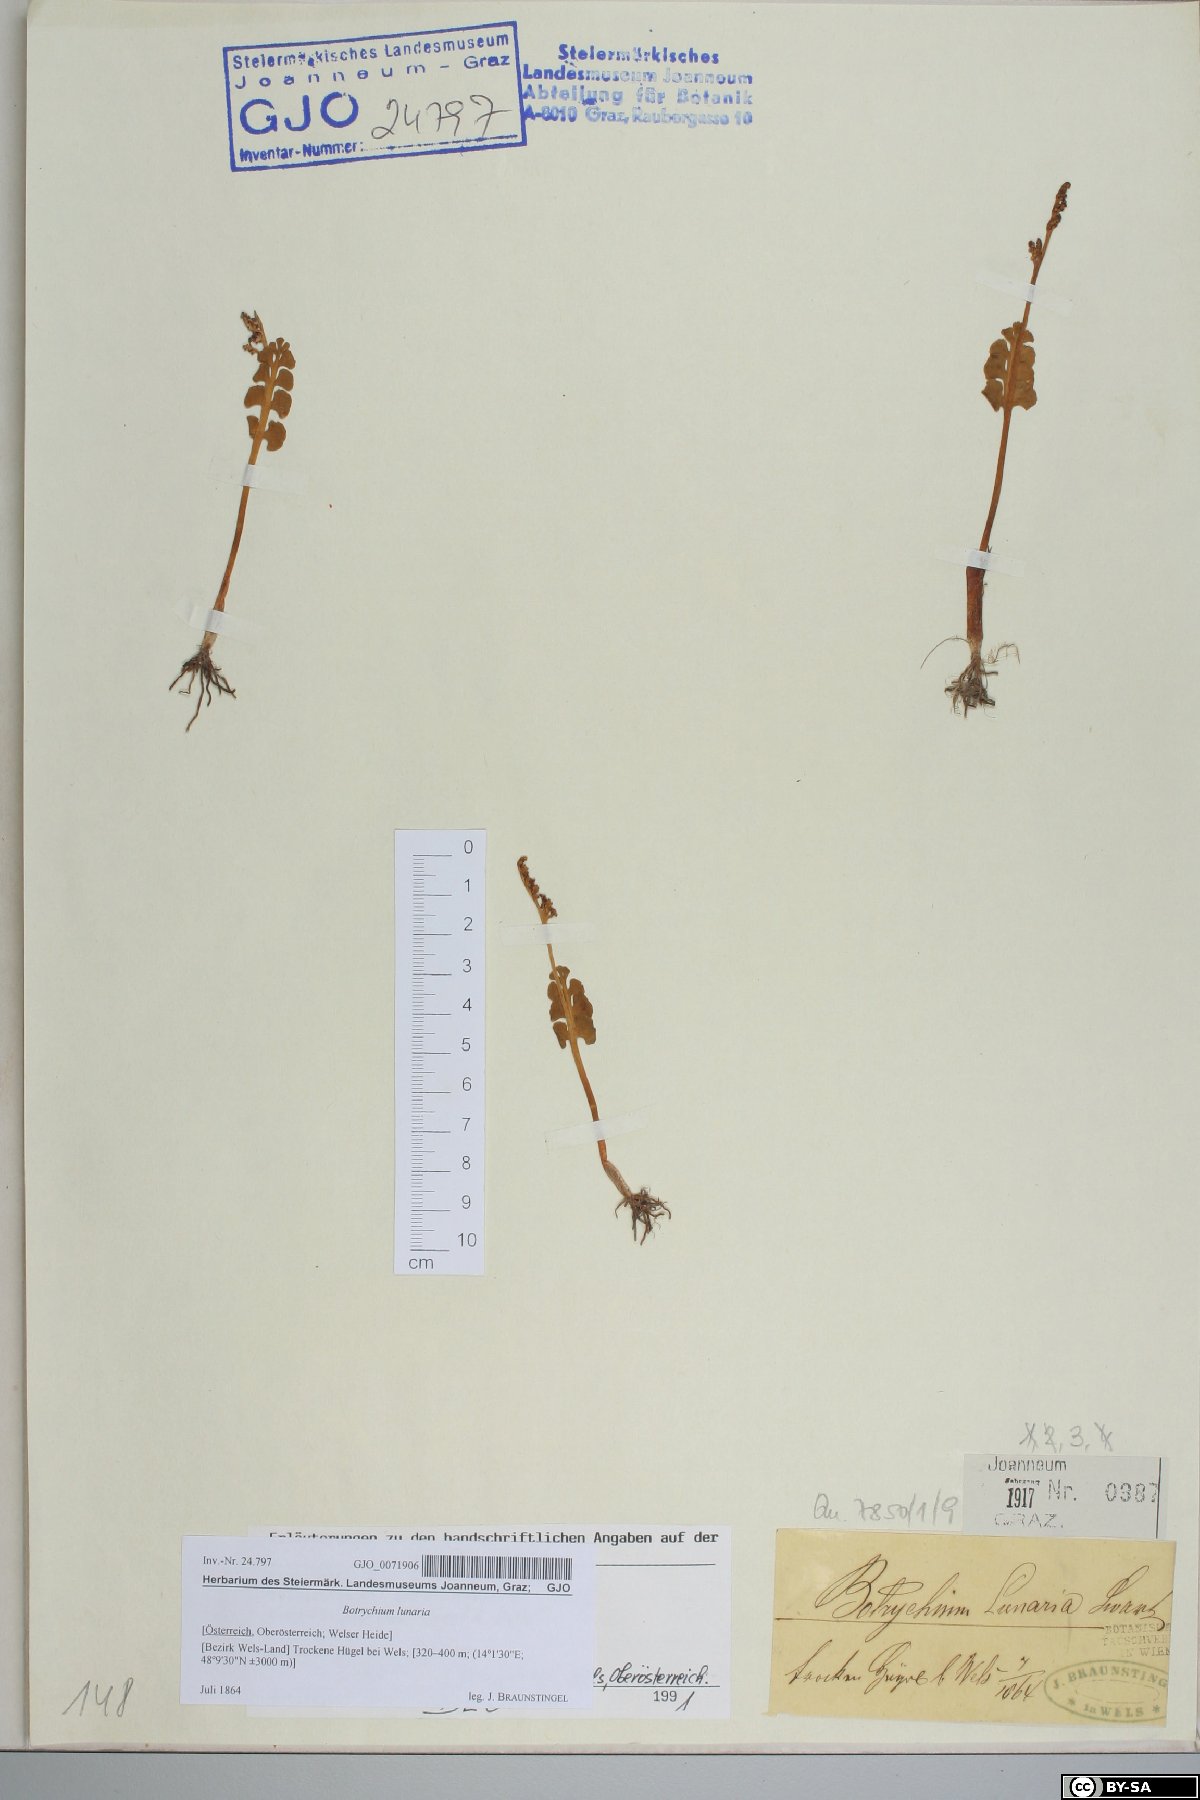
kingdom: Plantae
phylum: Tracheophyta
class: Polypodiopsida
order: Ophioglossales
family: Ophioglossaceae
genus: Botrychium
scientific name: Botrychium lunaria
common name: Moonwort
